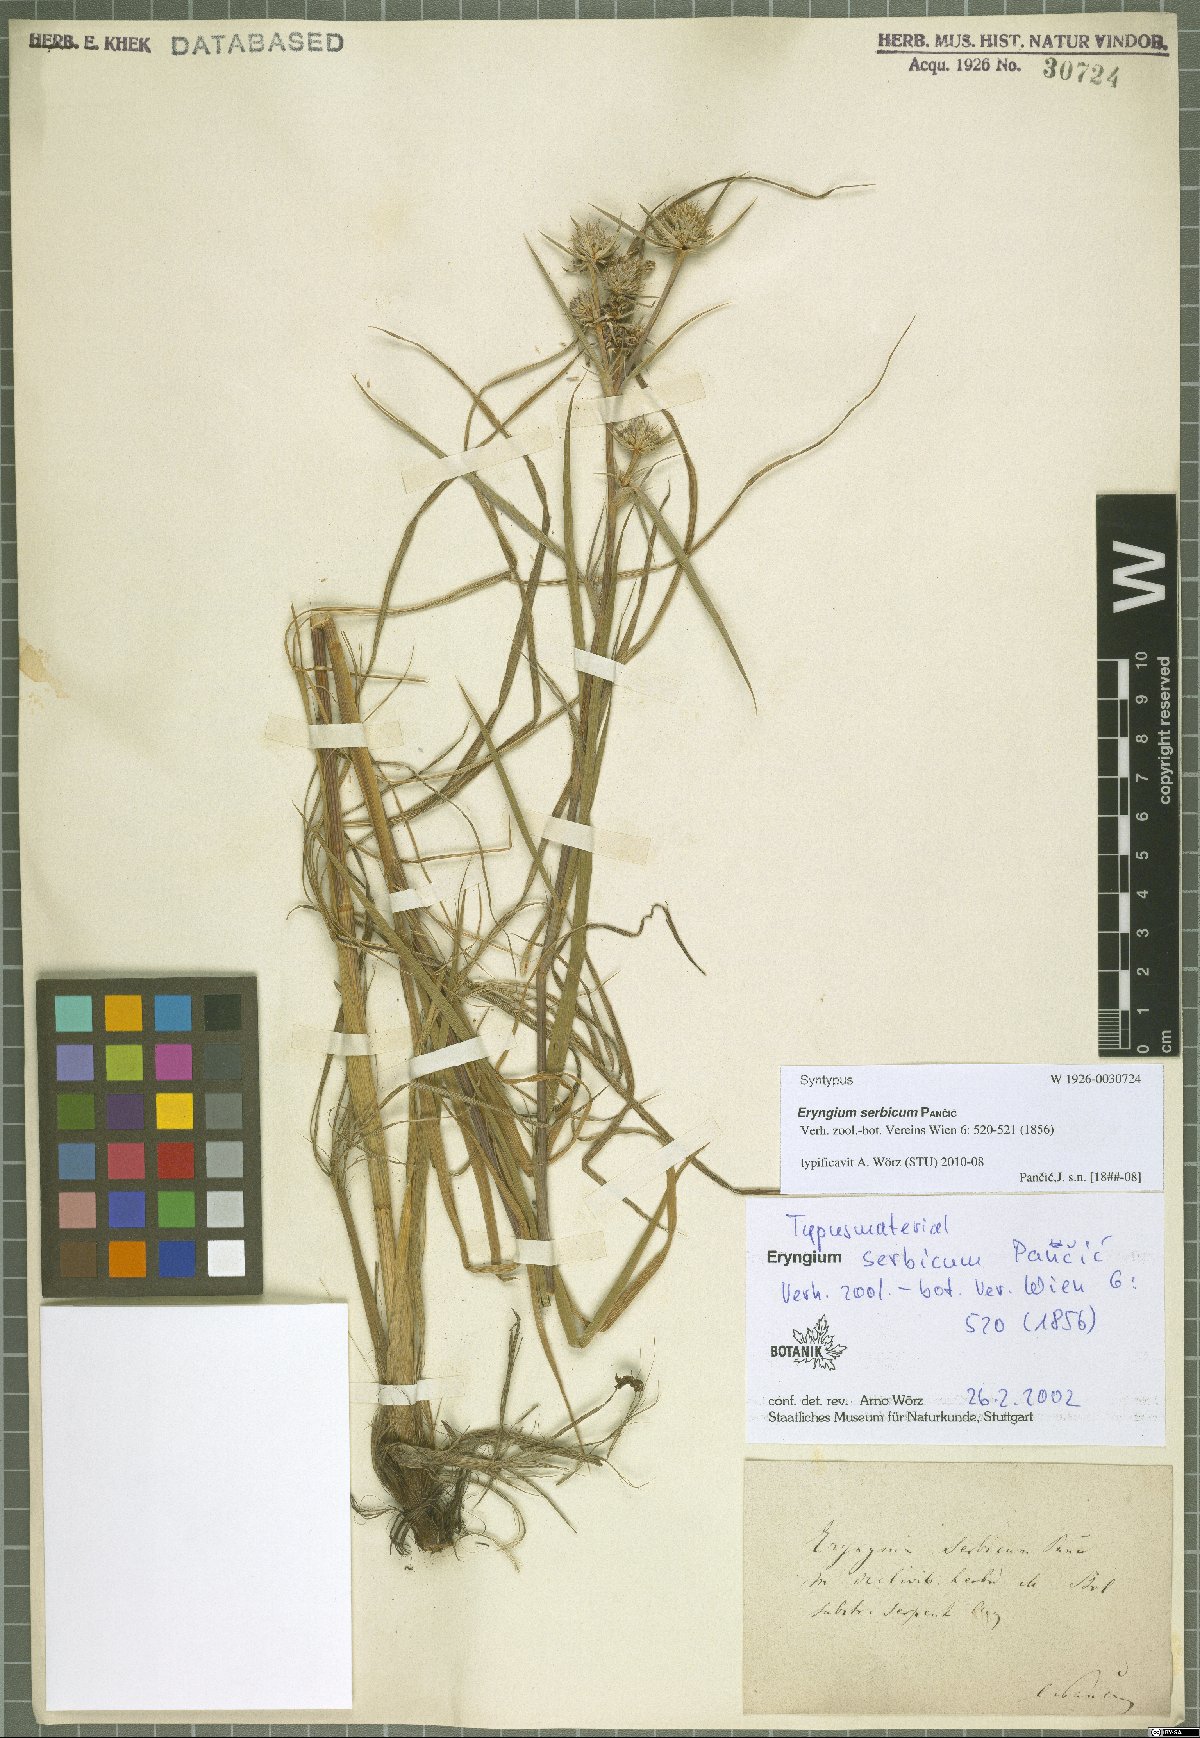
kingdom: Plantae
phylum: Tracheophyta
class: Magnoliopsida
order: Apiales
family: Apiaceae
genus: Eryngium
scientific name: Eryngium serbicum
